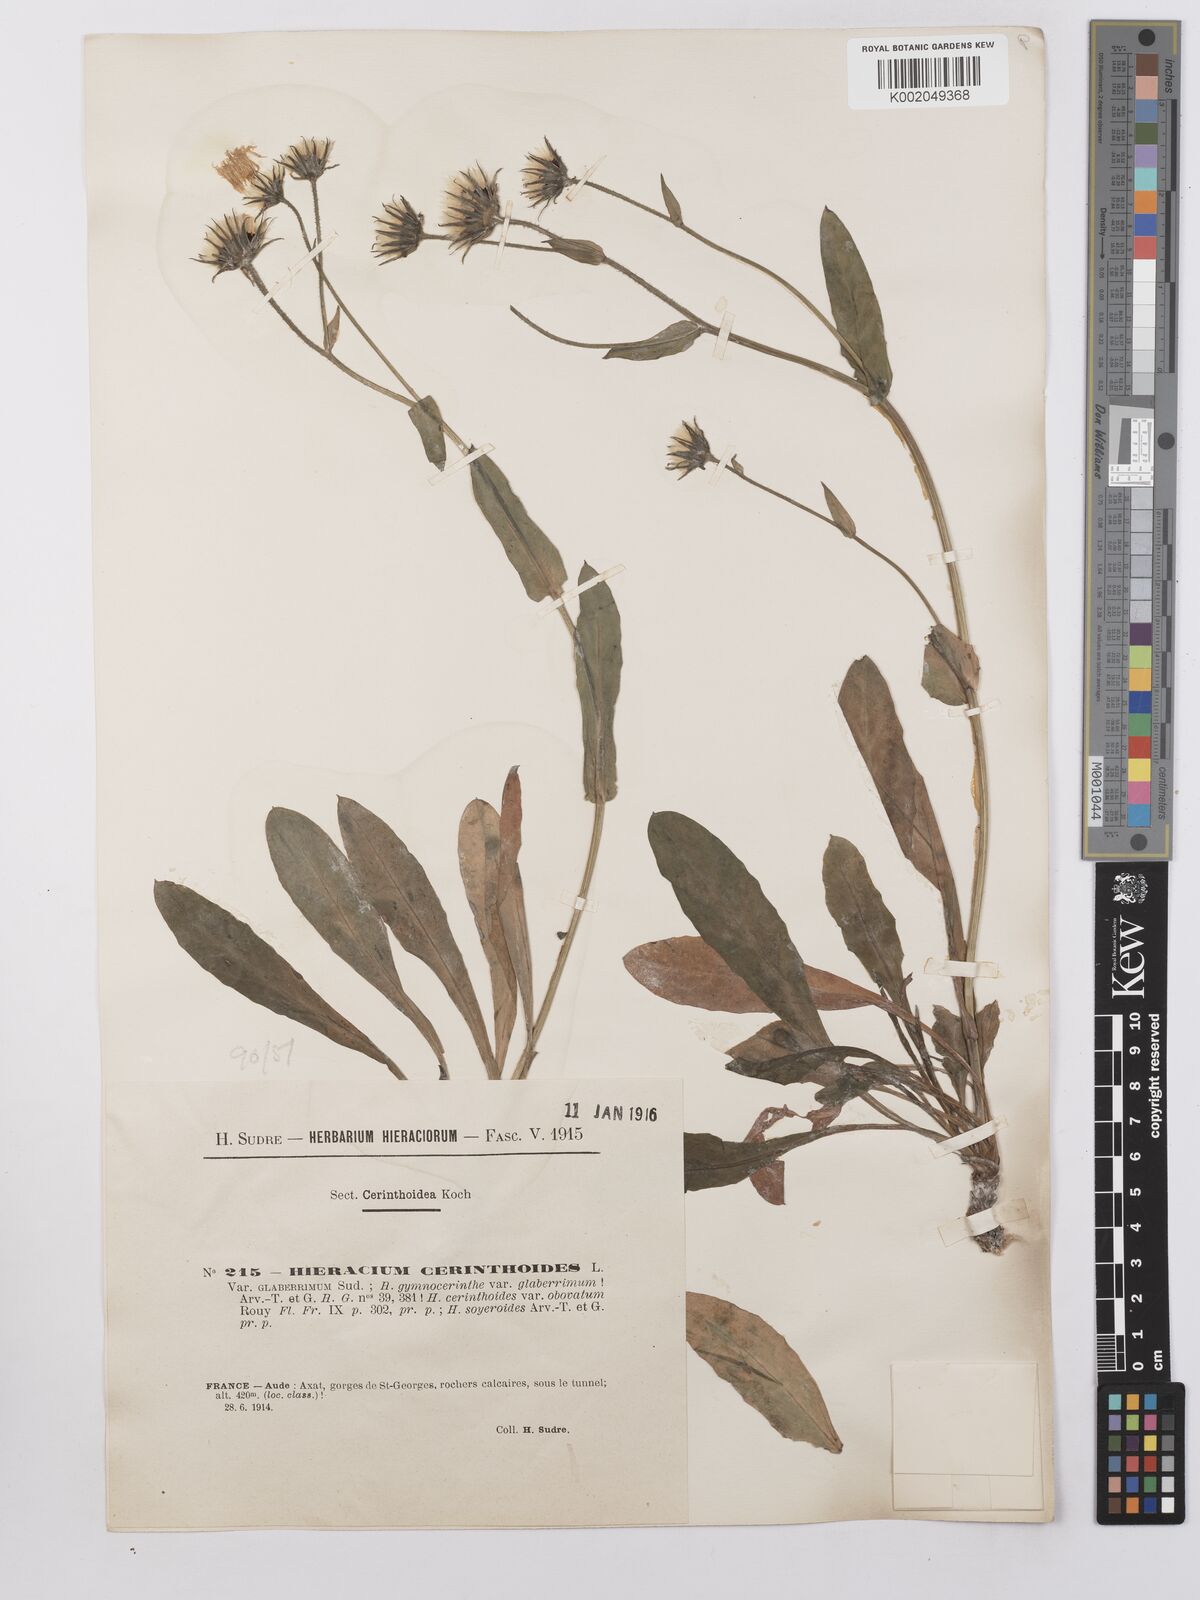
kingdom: Plantae
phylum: Tracheophyta
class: Magnoliopsida
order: Asterales
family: Asteraceae
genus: Hieracium
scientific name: Hieracium cerinthoides
